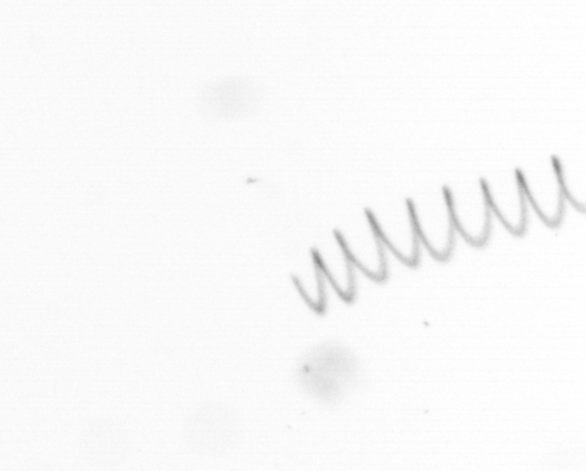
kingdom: Chromista
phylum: Ochrophyta
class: Bacillariophyceae
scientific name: Bacillariophyceae
